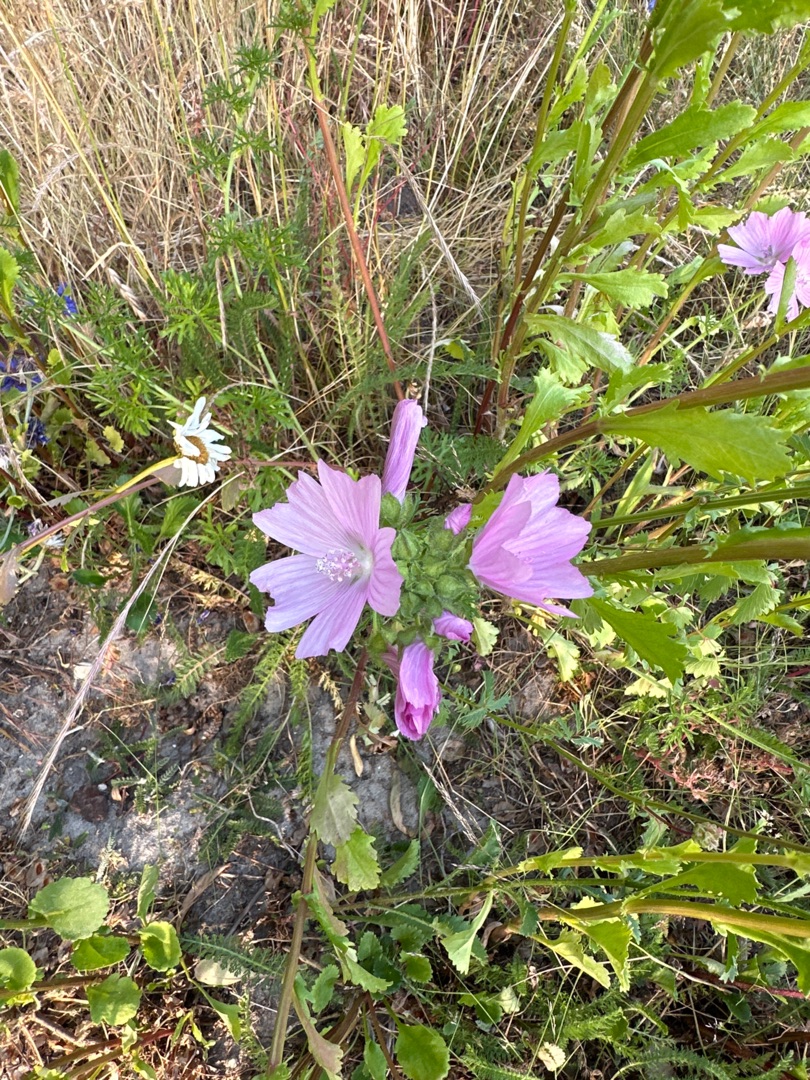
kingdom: Plantae
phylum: Tracheophyta
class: Magnoliopsida
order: Malvales
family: Malvaceae
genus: Malva
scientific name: Malva moschata
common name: Moskus-katost
